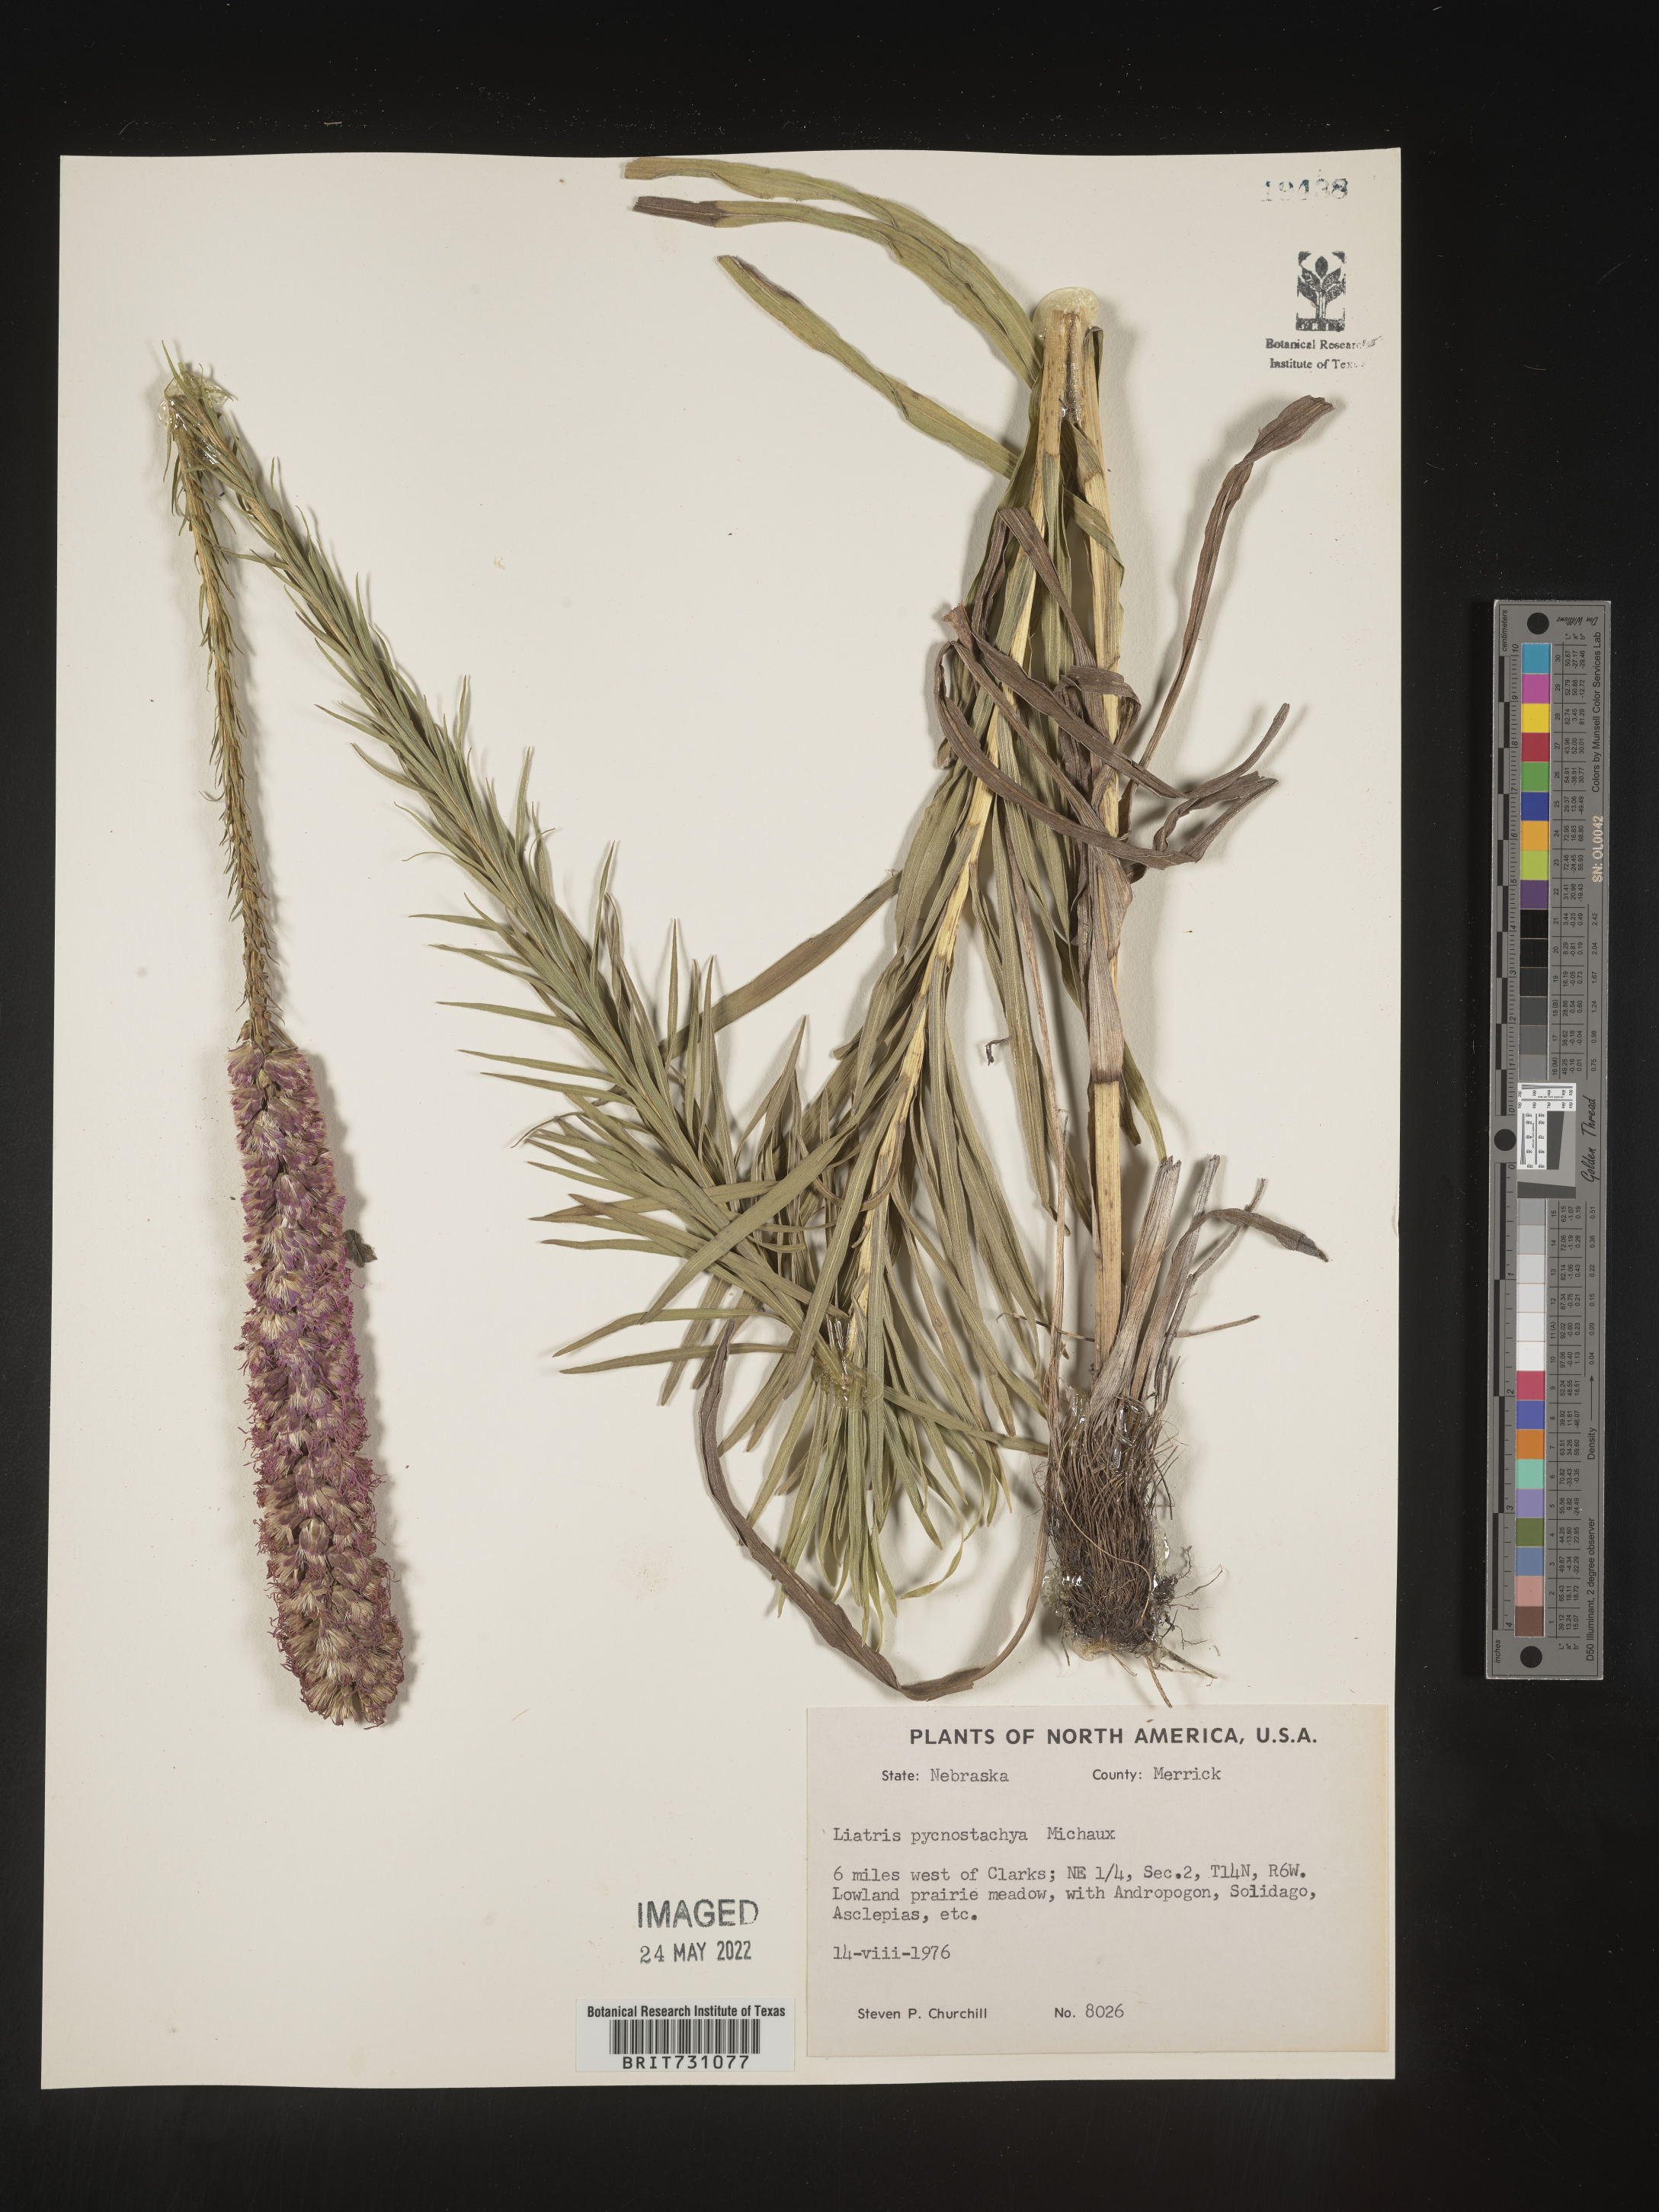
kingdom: Plantae
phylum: Tracheophyta
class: Magnoliopsida
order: Asterales
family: Asteraceae
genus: Liatris
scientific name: Liatris pycnostachya
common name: Cattail gayfeather
